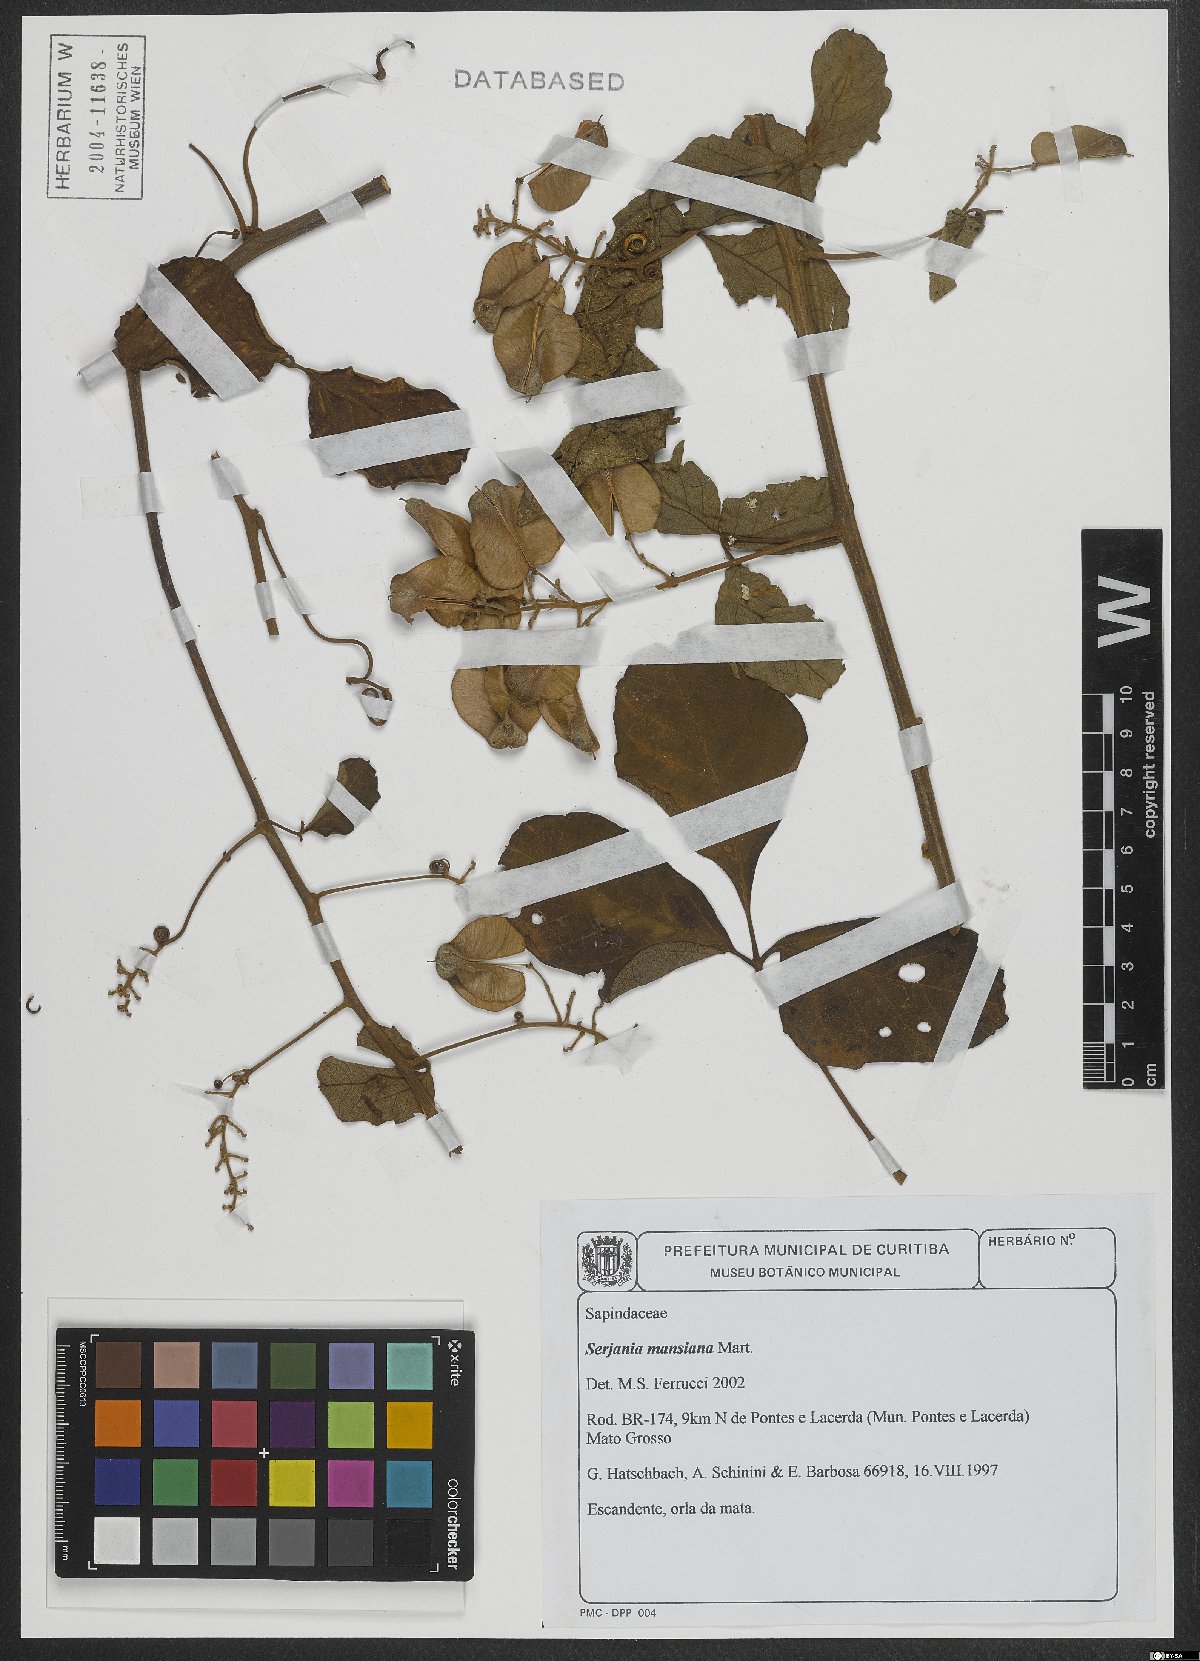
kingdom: Plantae
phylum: Tracheophyta
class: Magnoliopsida
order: Sapindales
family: Sapindaceae
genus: Serjania
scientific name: Serjania mansiana
